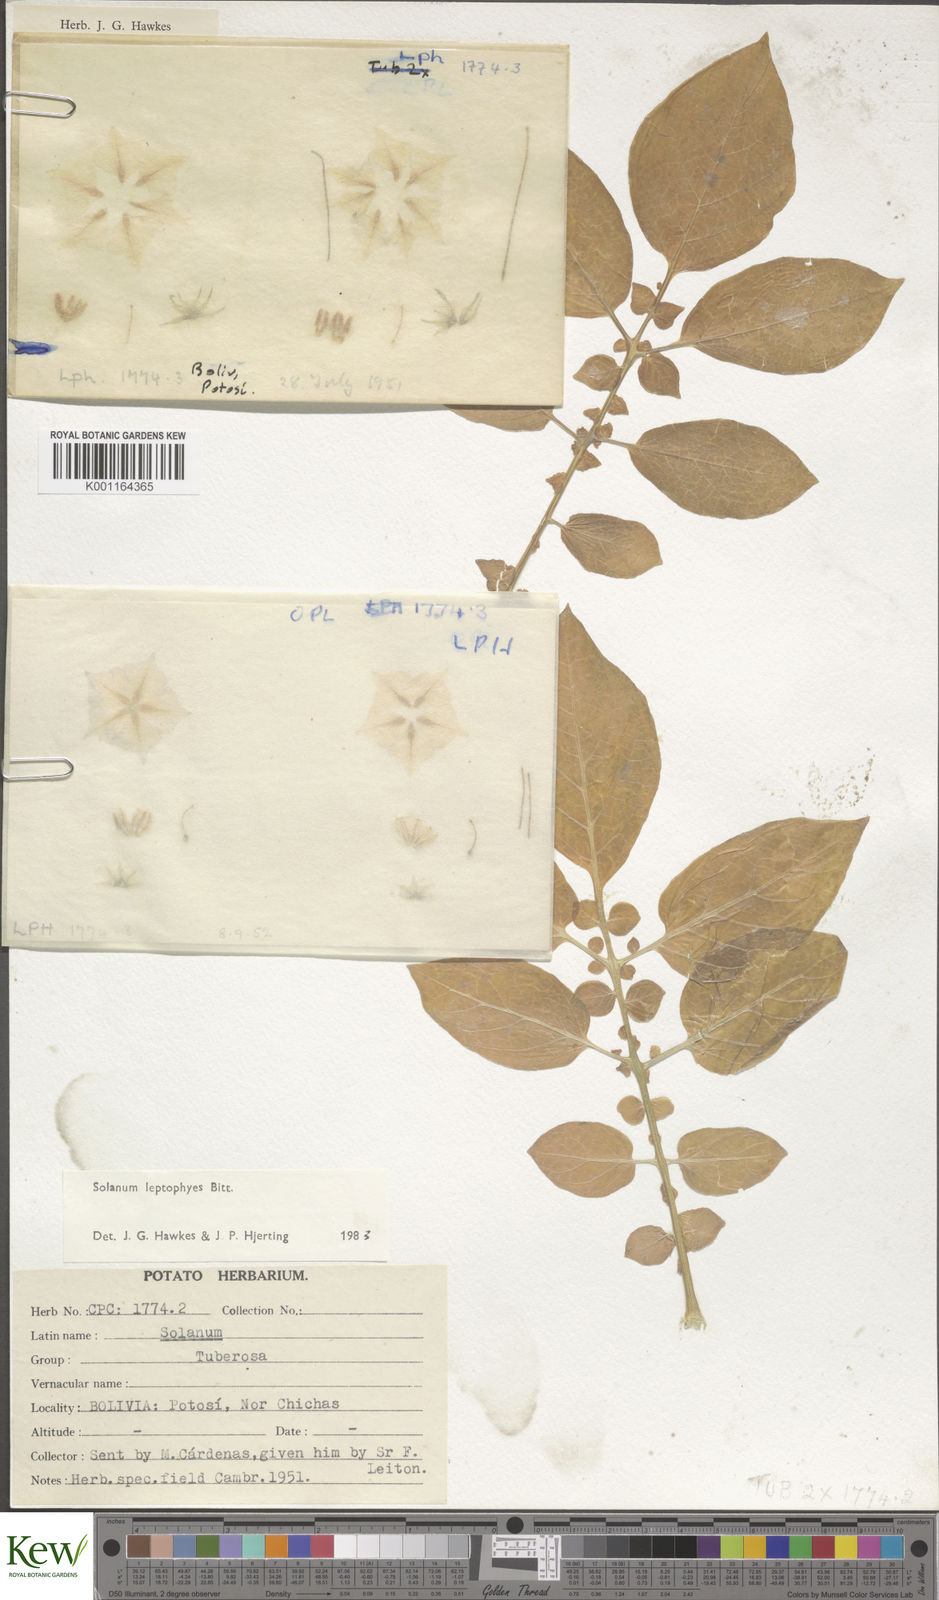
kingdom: Plantae
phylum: Tracheophyta
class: Magnoliopsida
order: Solanales
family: Solanaceae
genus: Solanum
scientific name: Solanum brevicaule
